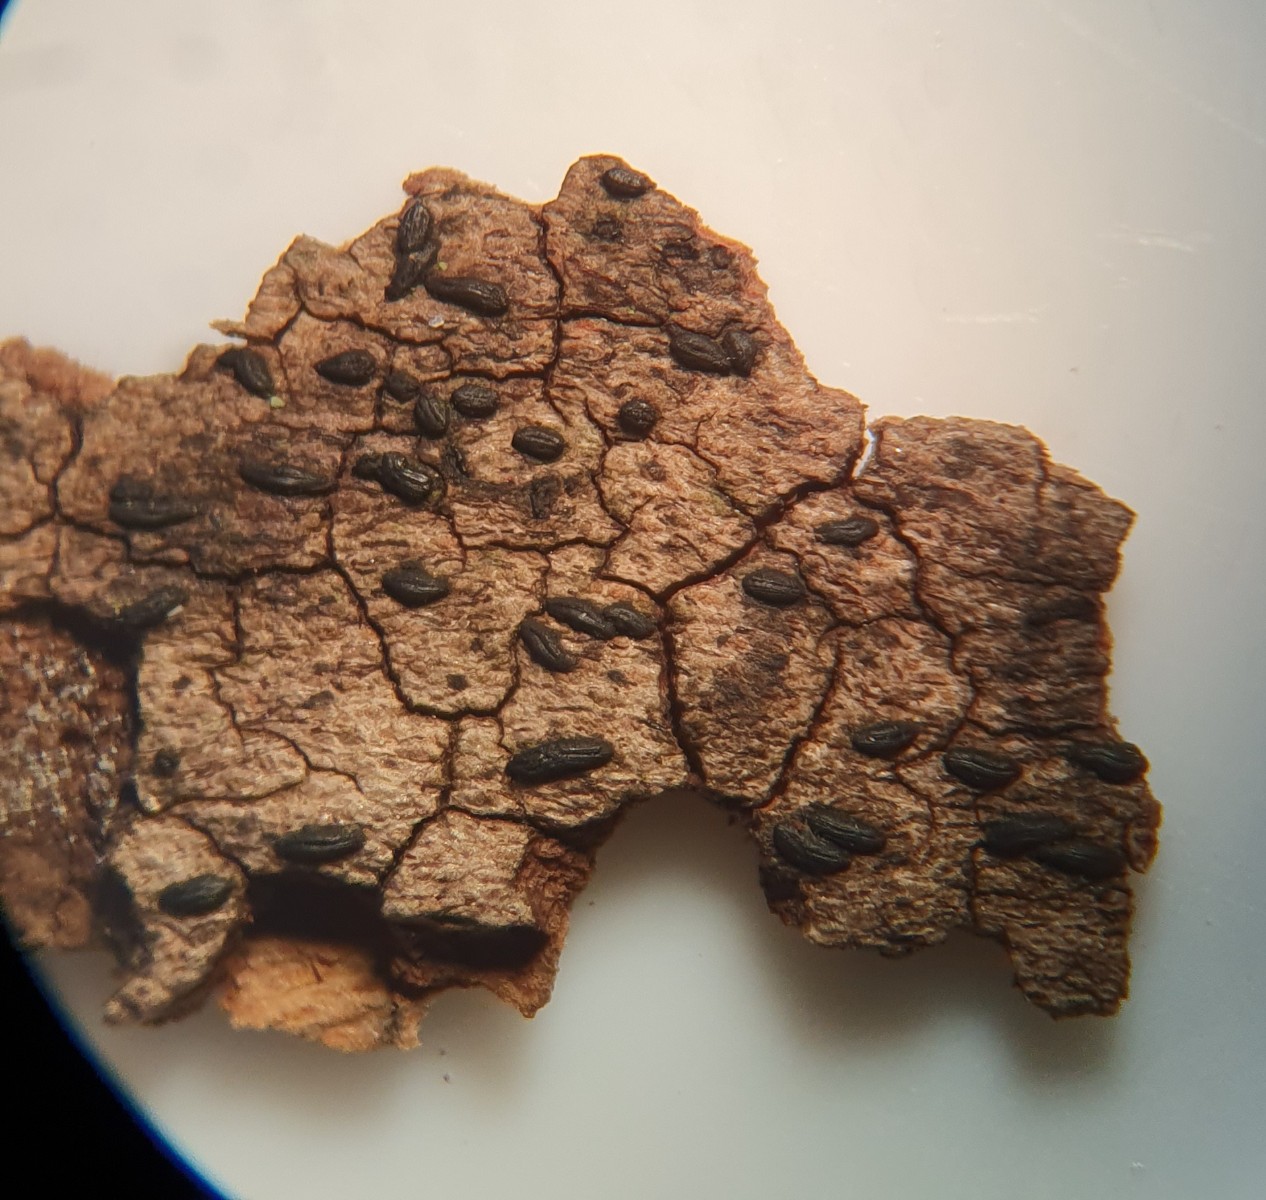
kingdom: Fungi
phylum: Ascomycota
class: Dothideomycetes
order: Hysteriales
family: Hysteriaceae
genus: Hysterium
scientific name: Hysterium acuminatum
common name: almindelig kulmund
